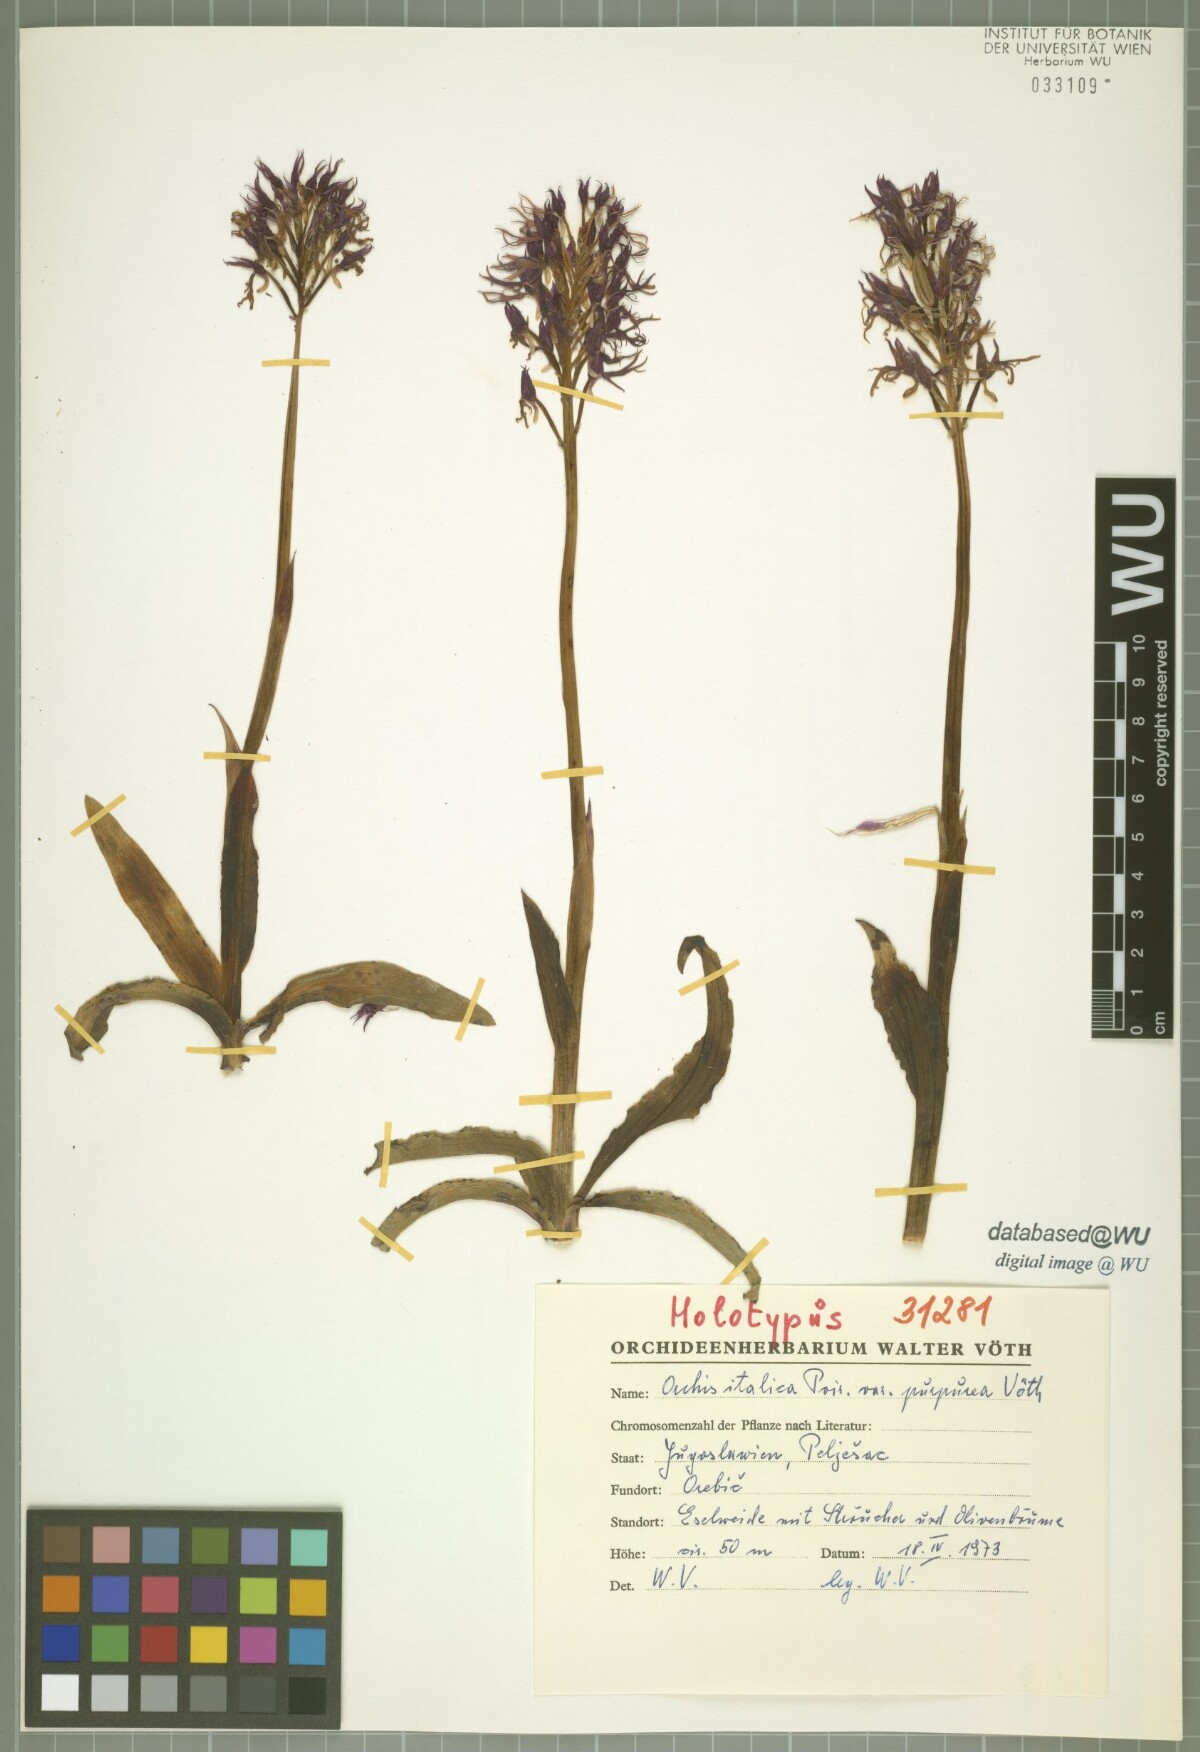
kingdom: Plantae
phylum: Tracheophyta
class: Liliopsida
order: Asparagales
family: Orchidaceae
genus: Orchis
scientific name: Orchis italica
